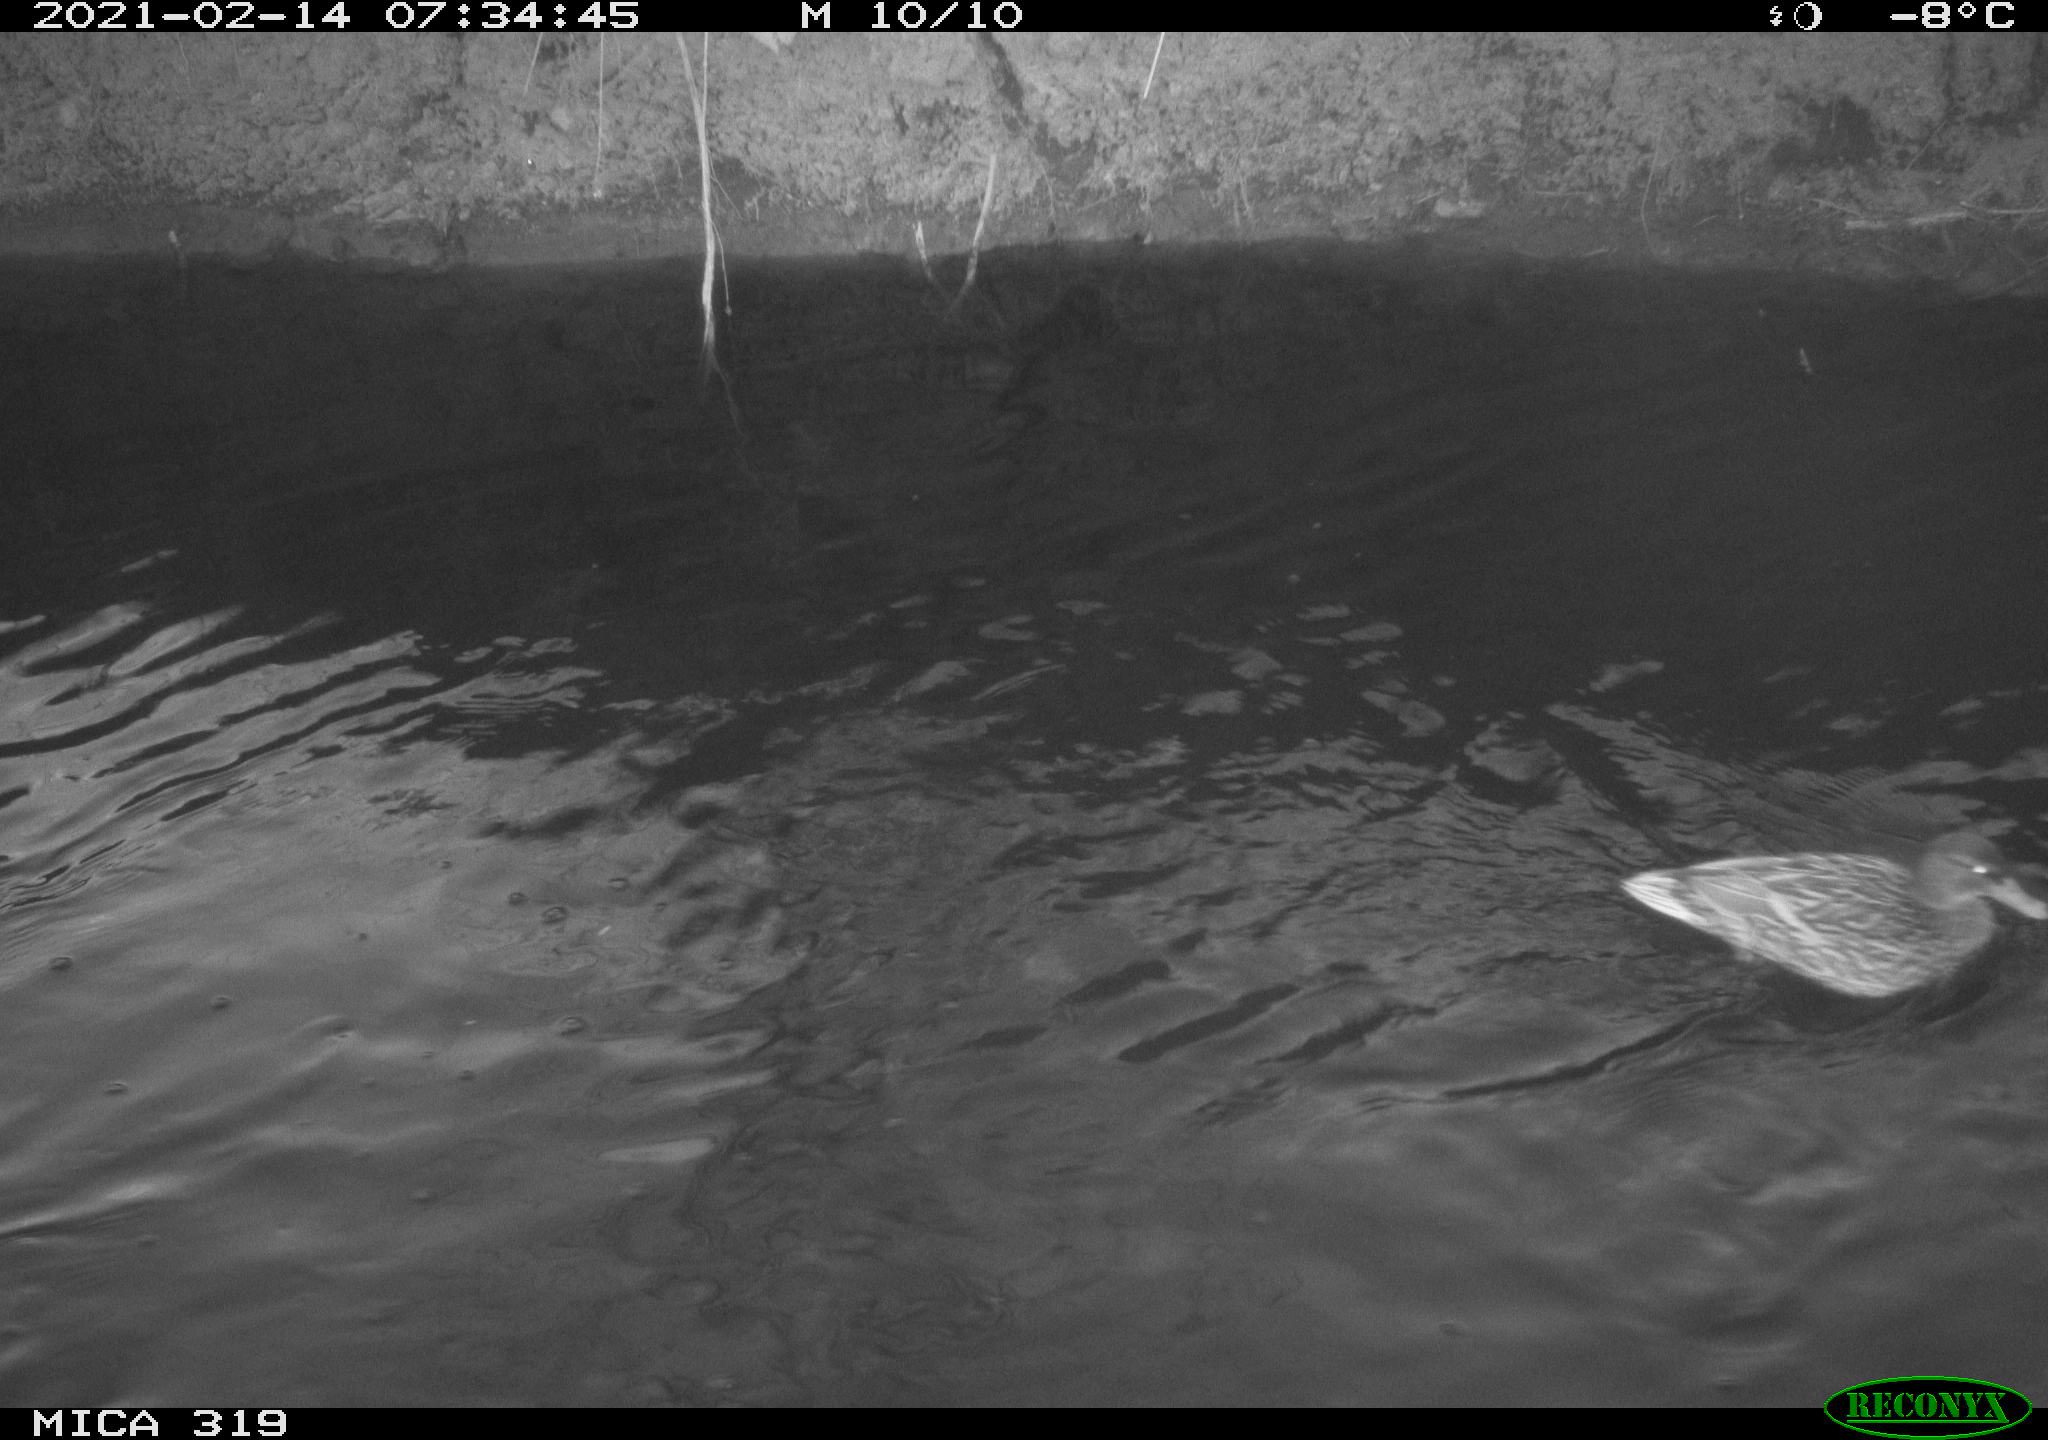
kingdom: Animalia
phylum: Chordata
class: Aves
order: Anseriformes
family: Anatidae
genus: Anas
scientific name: Anas platyrhynchos
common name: Mallard
